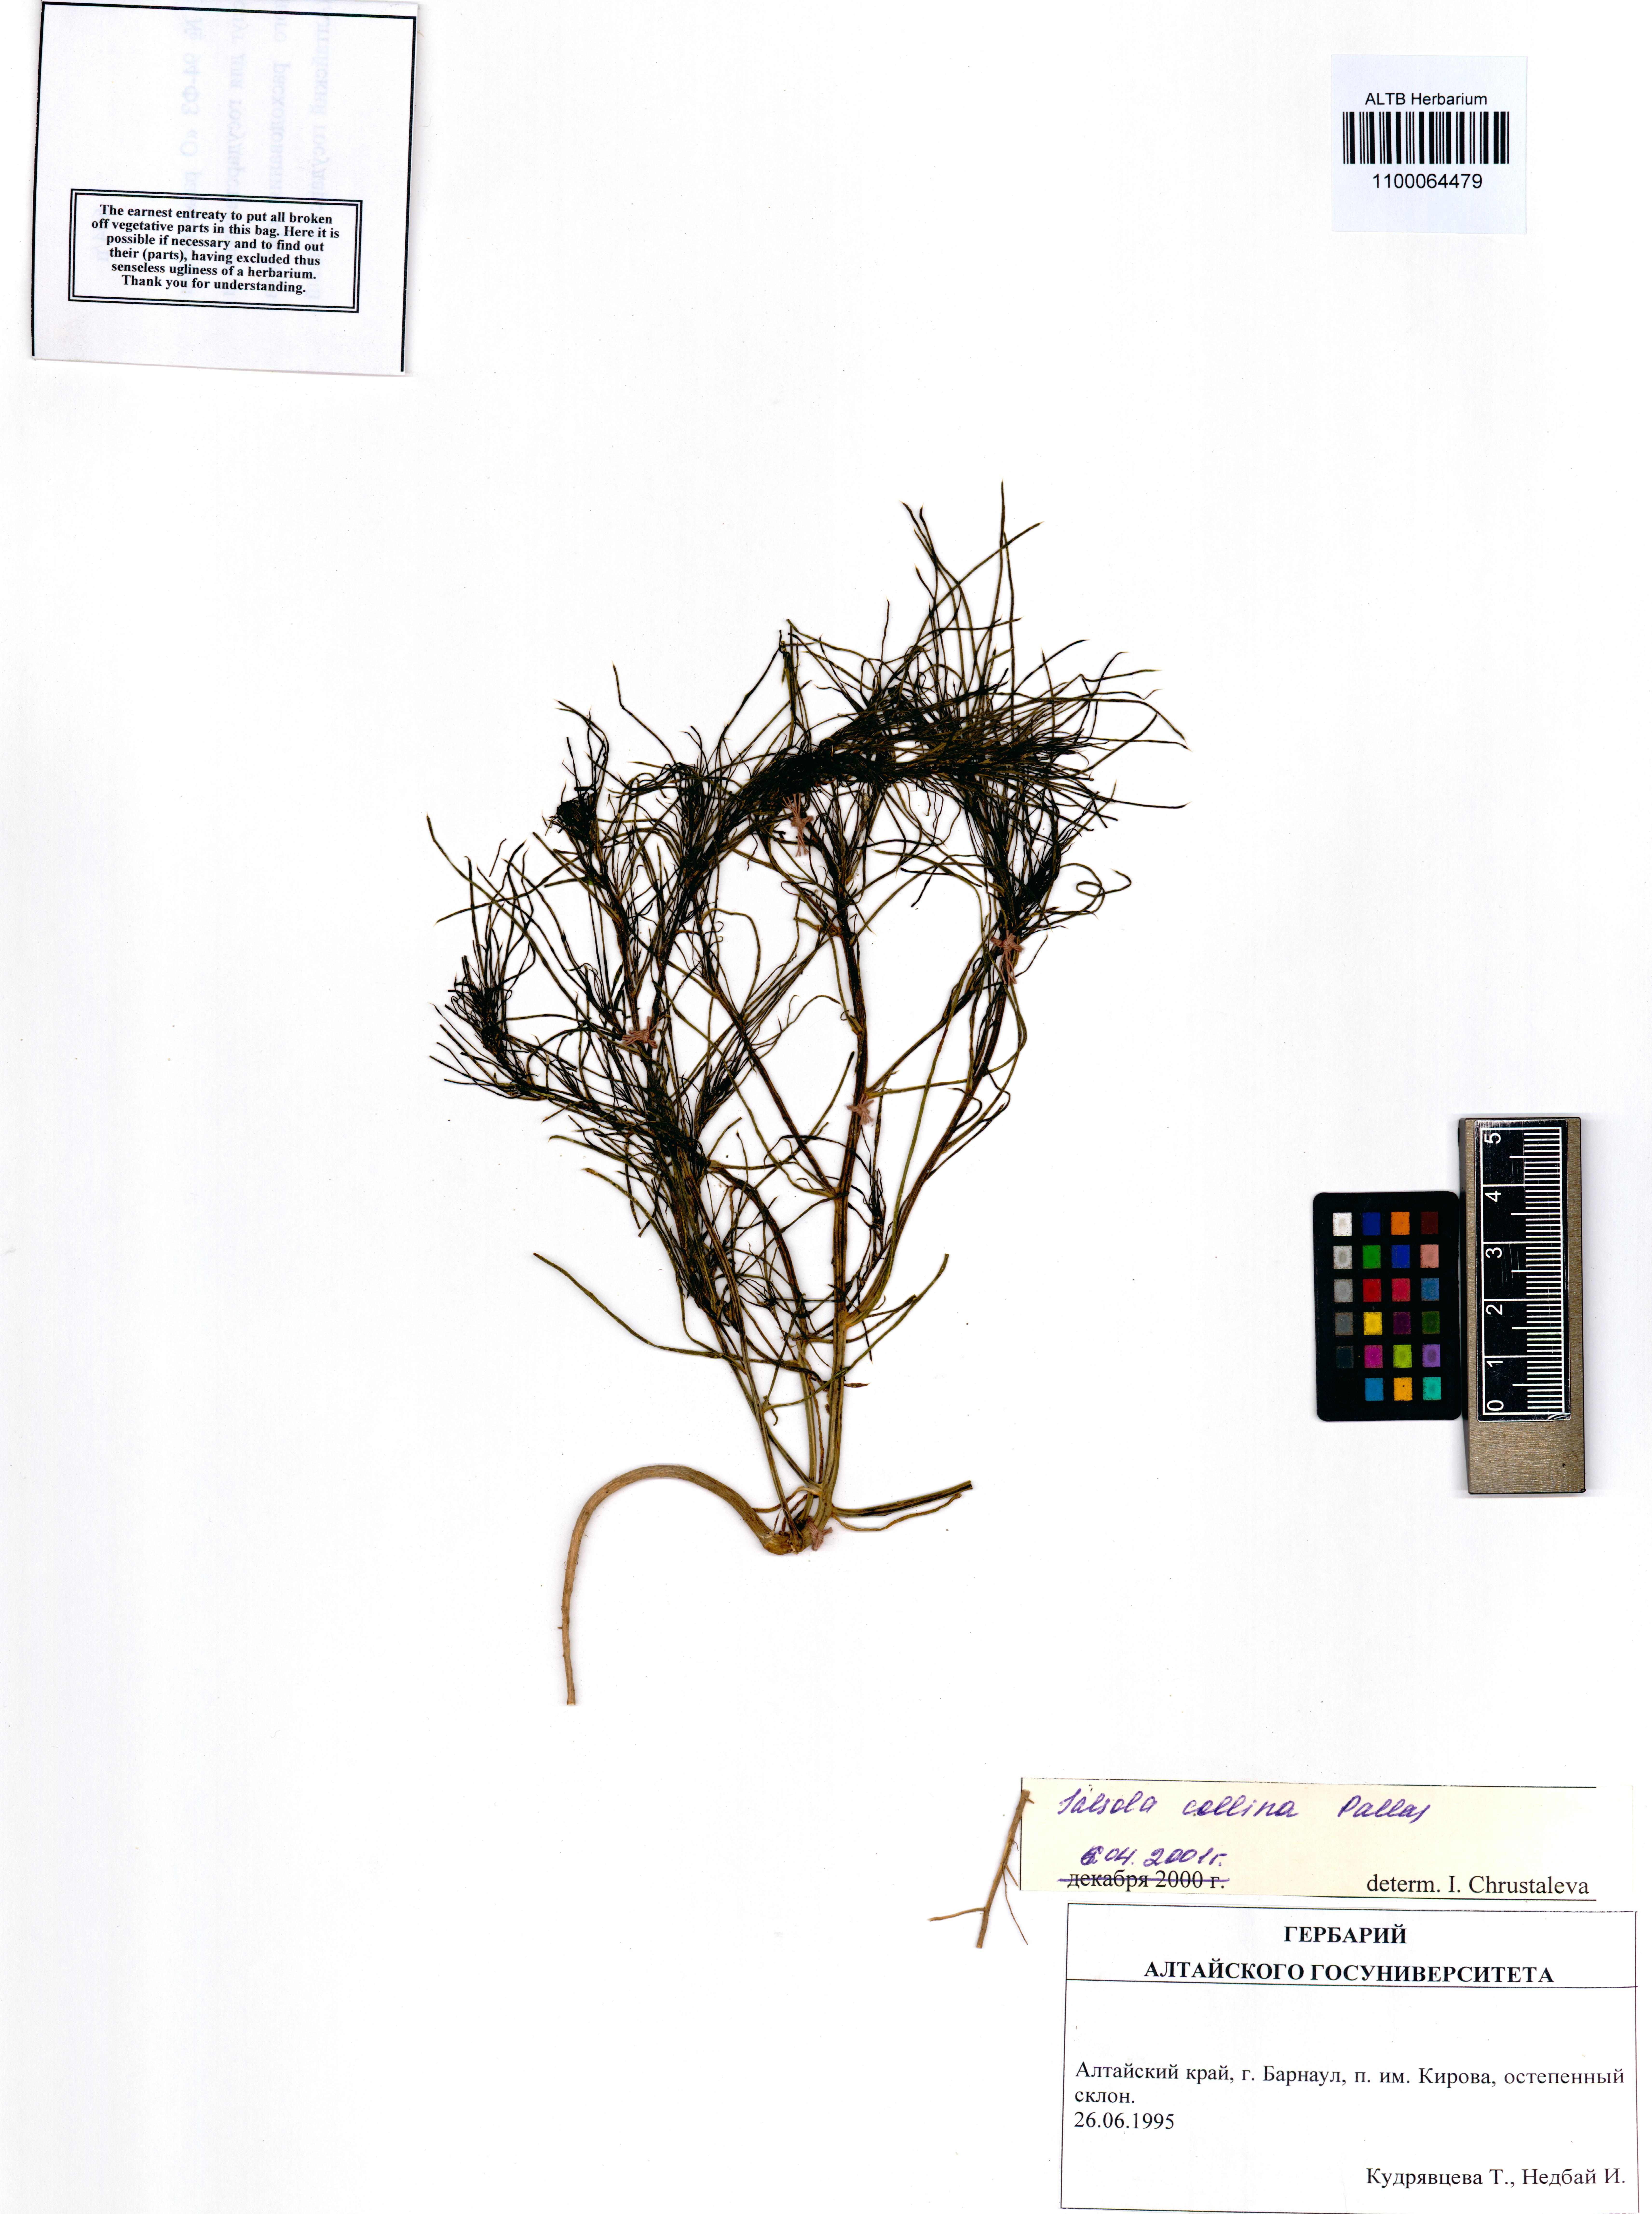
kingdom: Plantae
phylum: Tracheophyta
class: Magnoliopsida
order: Caryophyllales
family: Amaranthaceae
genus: Salsola
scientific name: Salsola collina
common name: Tumbleweed
